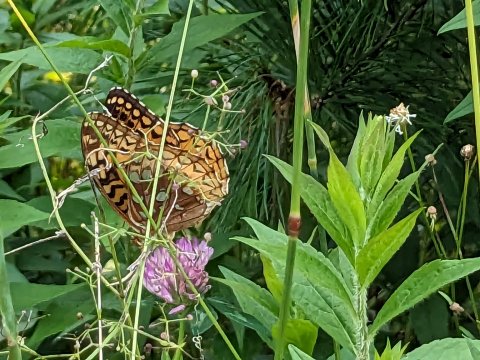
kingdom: Animalia
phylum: Arthropoda
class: Insecta
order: Lepidoptera
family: Nymphalidae
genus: Speyeria
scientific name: Speyeria cybele
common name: Great Spangled Fritillary
